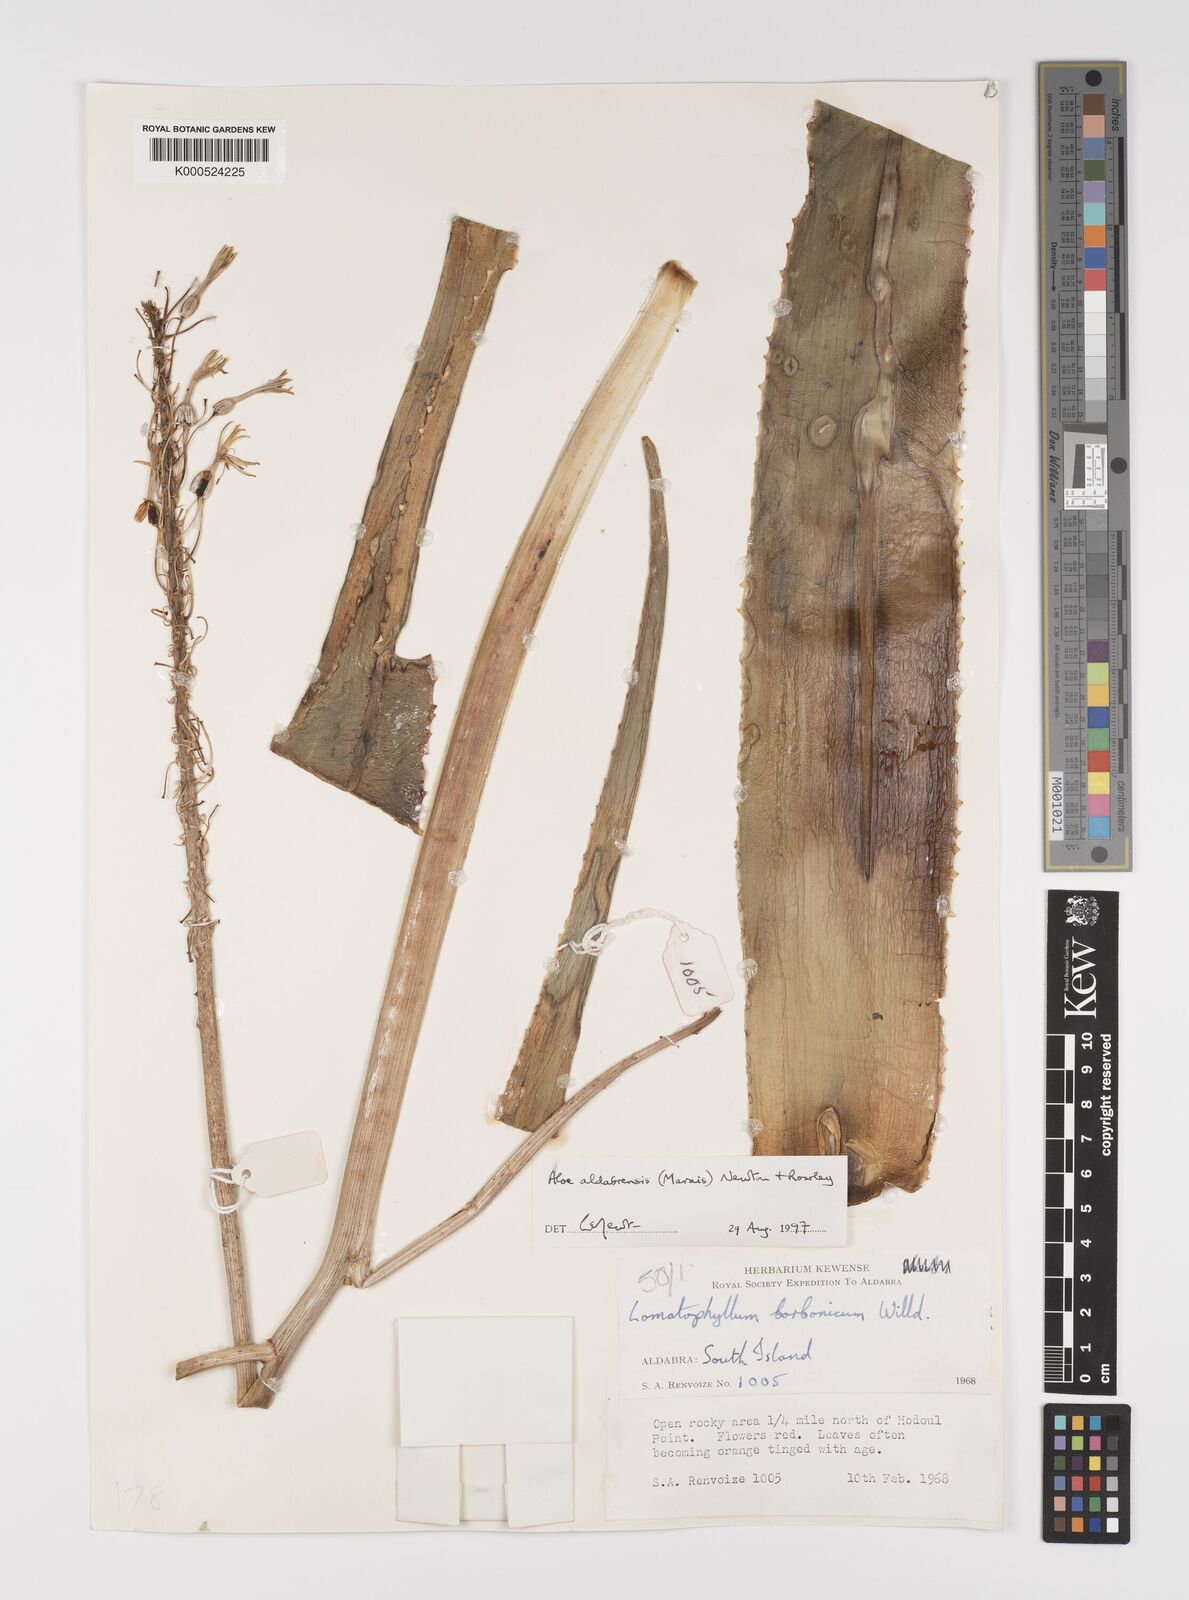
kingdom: Plantae
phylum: Tracheophyta
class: Liliopsida
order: Asparagales
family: Asphodelaceae
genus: Aloe
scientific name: Aloe aldabrensis
